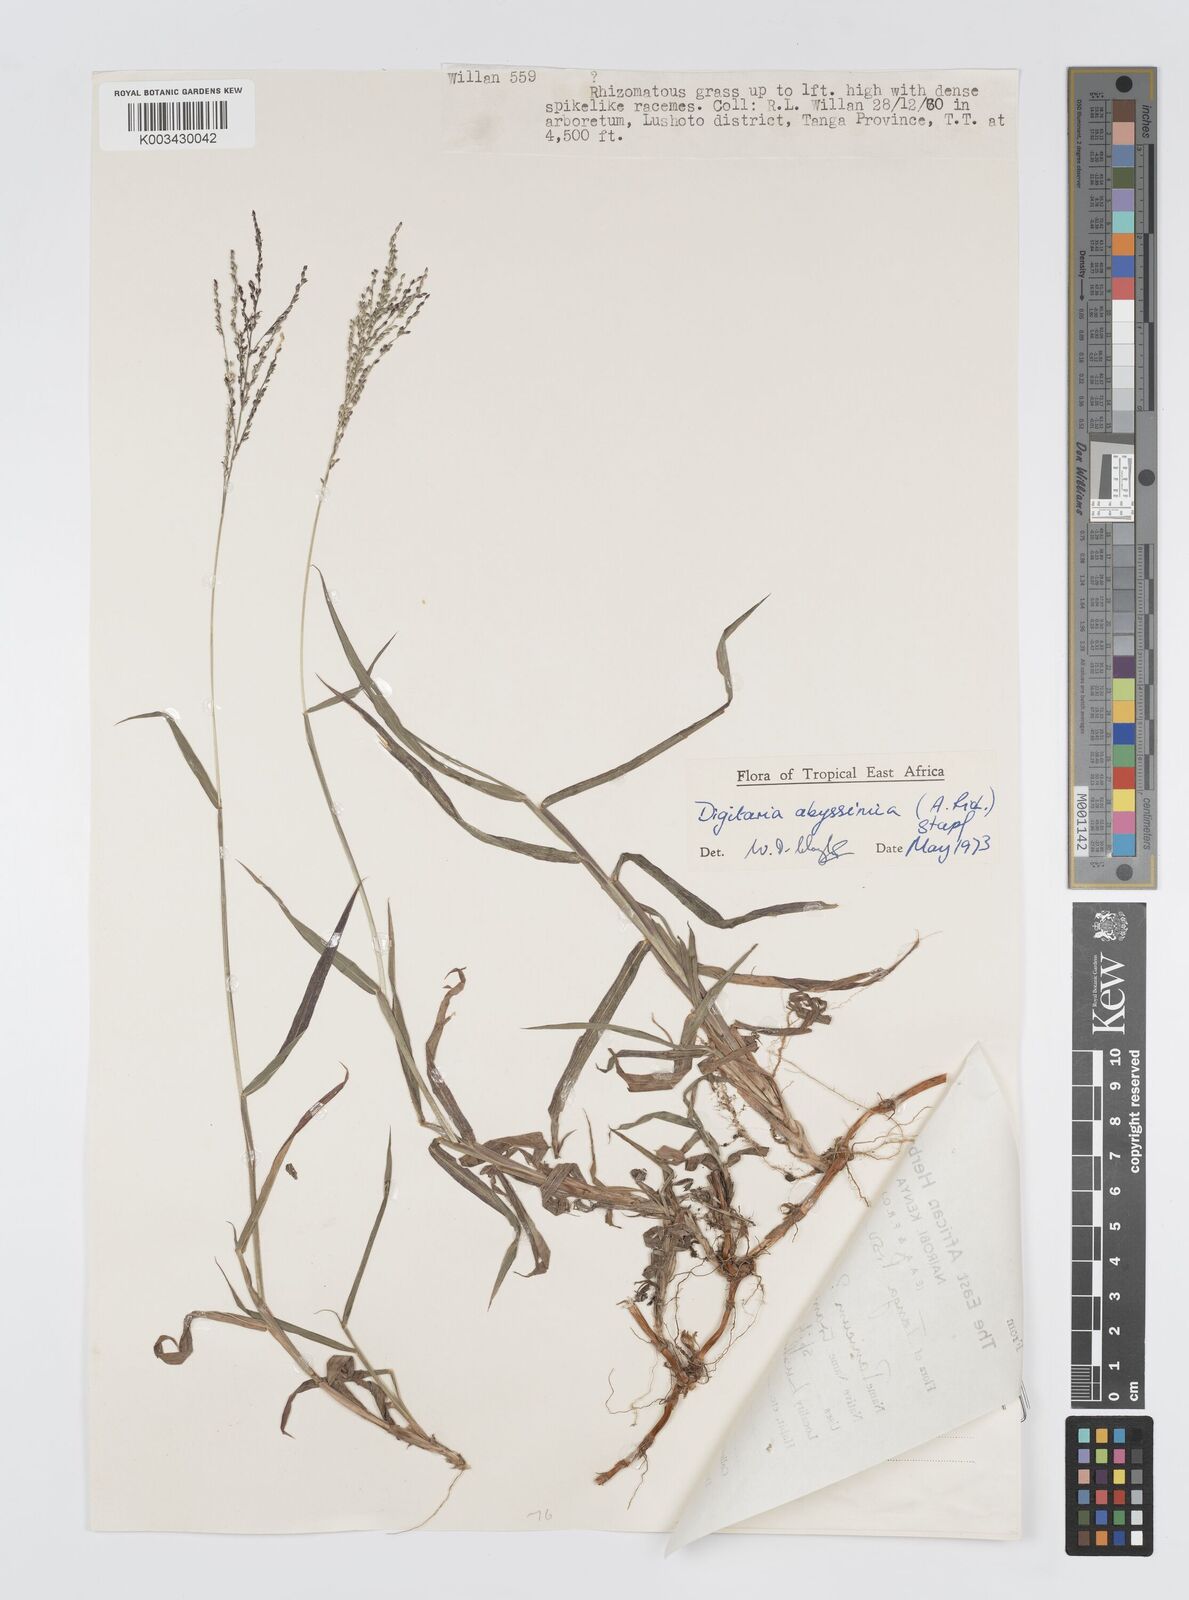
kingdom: Plantae
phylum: Tracheophyta
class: Liliopsida
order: Poales
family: Poaceae
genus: Digitaria
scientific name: Digitaria abyssinica
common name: African couchgrass
